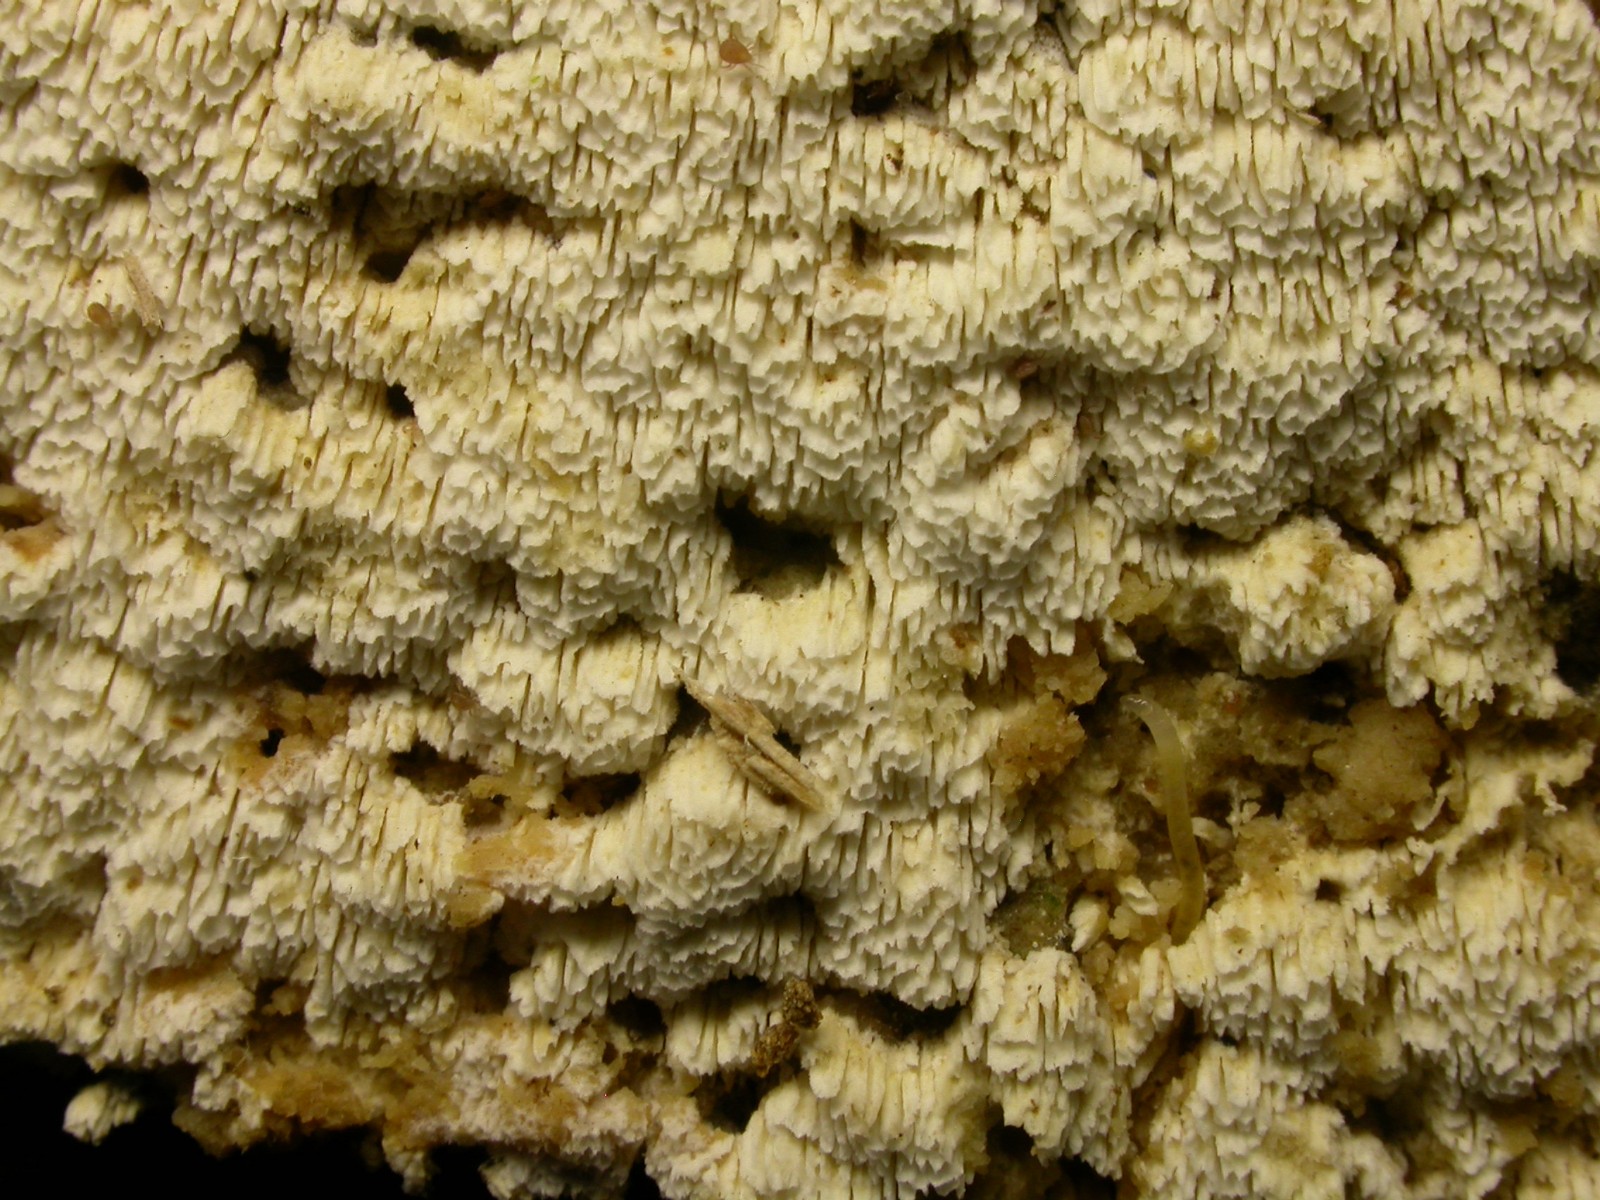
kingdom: Fungi
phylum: Basidiomycota
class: Agaricomycetes
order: Hymenochaetales
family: Schizoporaceae
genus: Schizopora
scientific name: Schizopora paradoxa
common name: hvid tandsvamp
